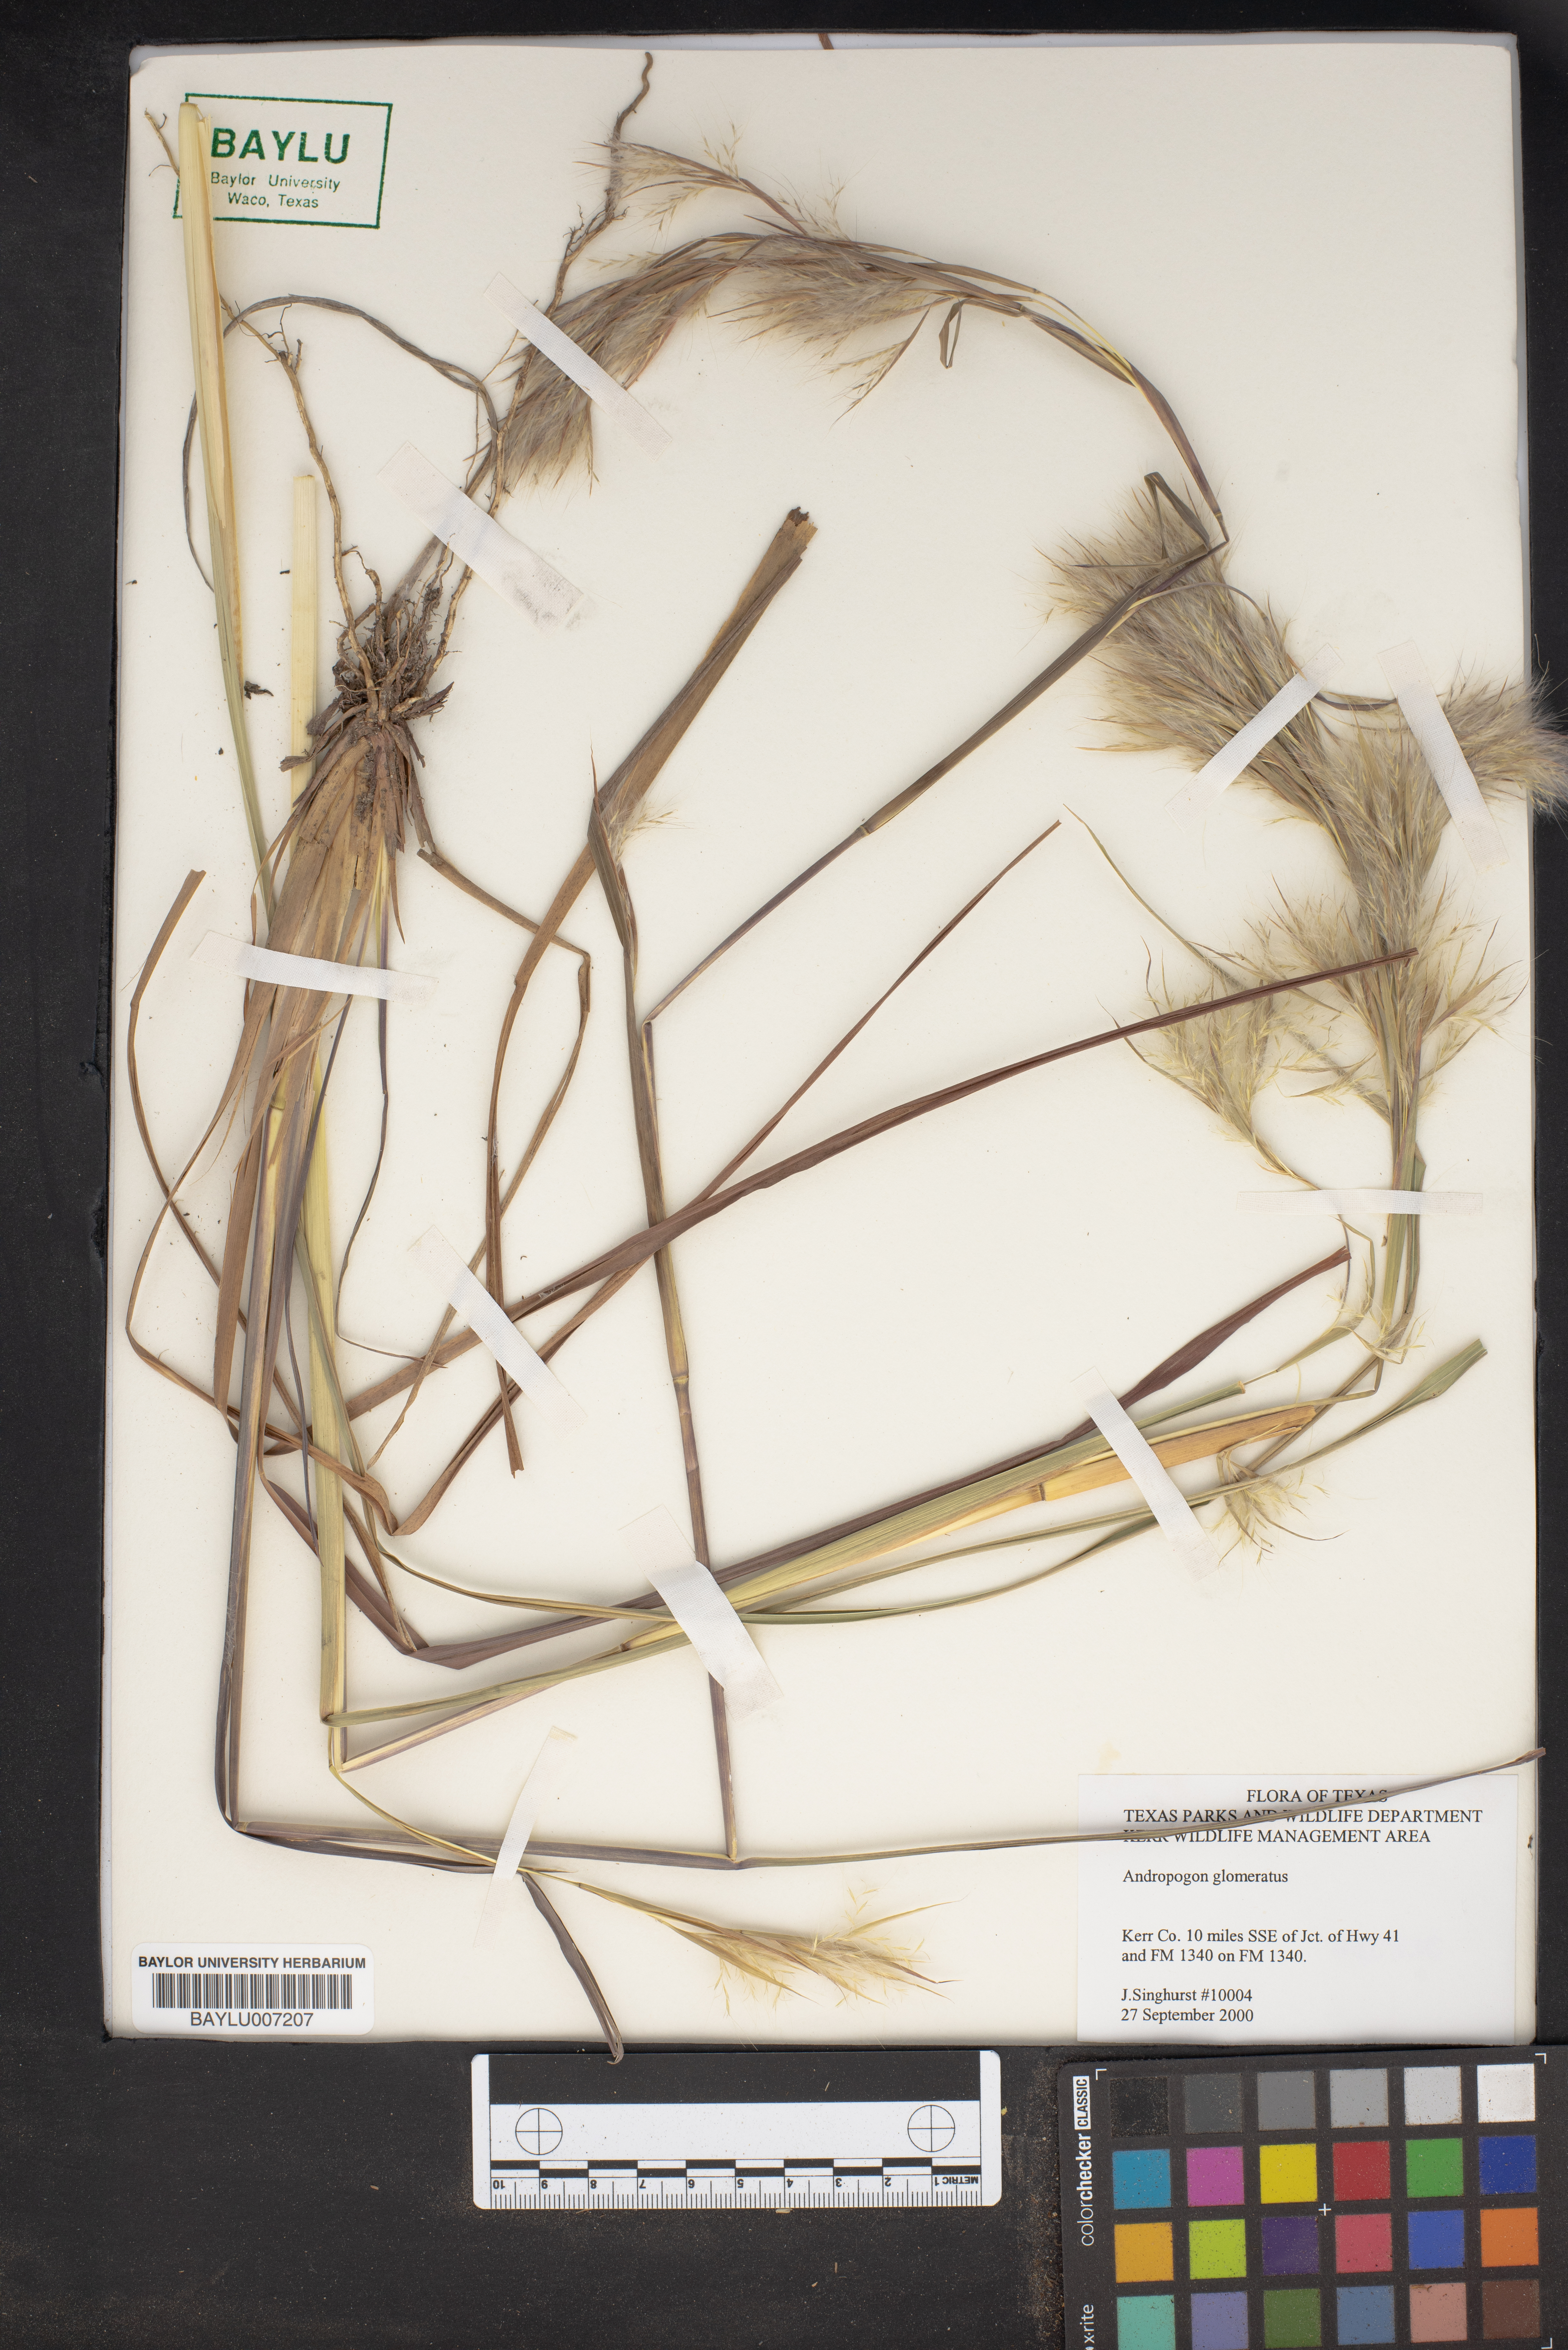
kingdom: Plantae
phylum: Tracheophyta
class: Liliopsida
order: Poales
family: Poaceae
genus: Andropogon
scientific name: Andropogon glomeratus
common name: Bushy beard grass
